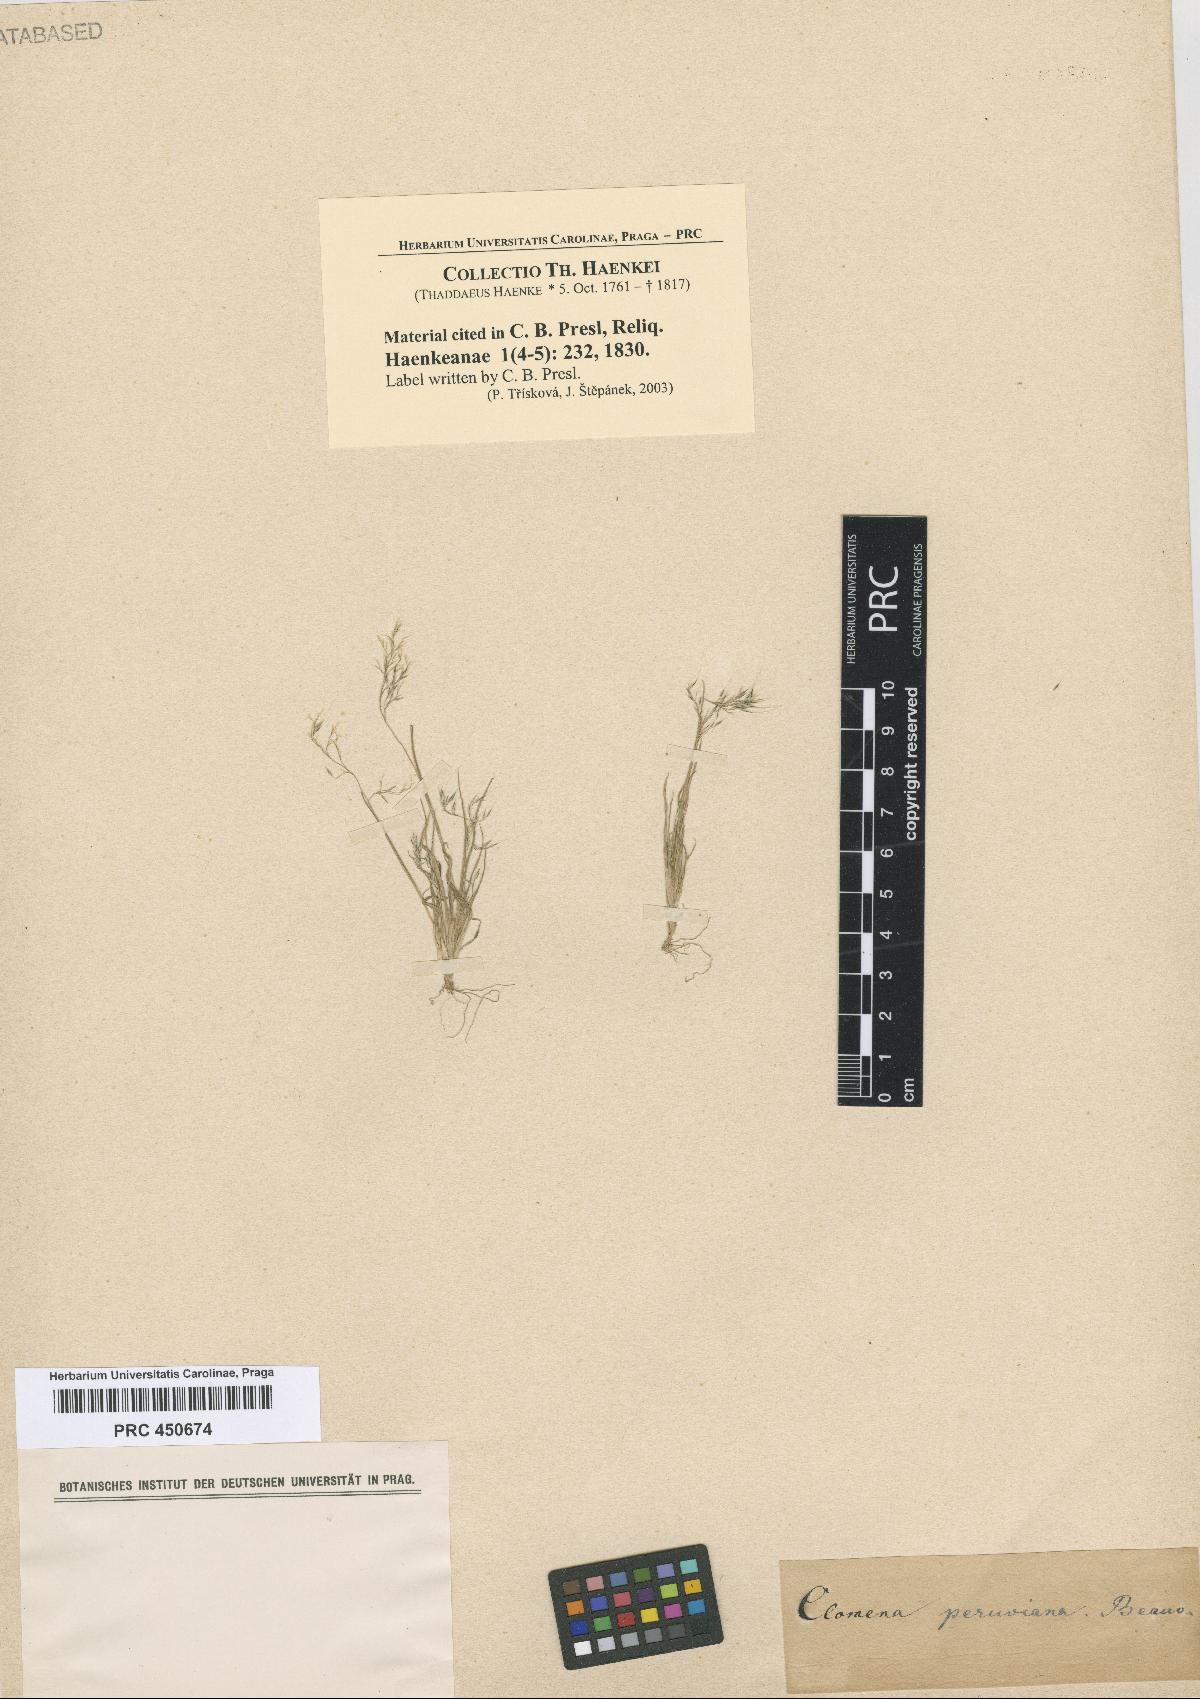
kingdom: Plantae
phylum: Tracheophyta
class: Liliopsida
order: Poales
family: Poaceae
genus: Muhlenbergia
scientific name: Muhlenbergia peruviana
